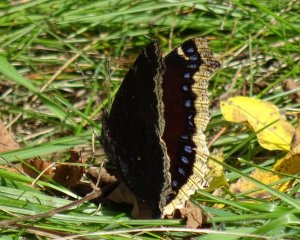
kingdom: Animalia
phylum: Arthropoda
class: Insecta
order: Lepidoptera
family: Nymphalidae
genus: Nymphalis
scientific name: Nymphalis antiopa
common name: Mourning Cloak
